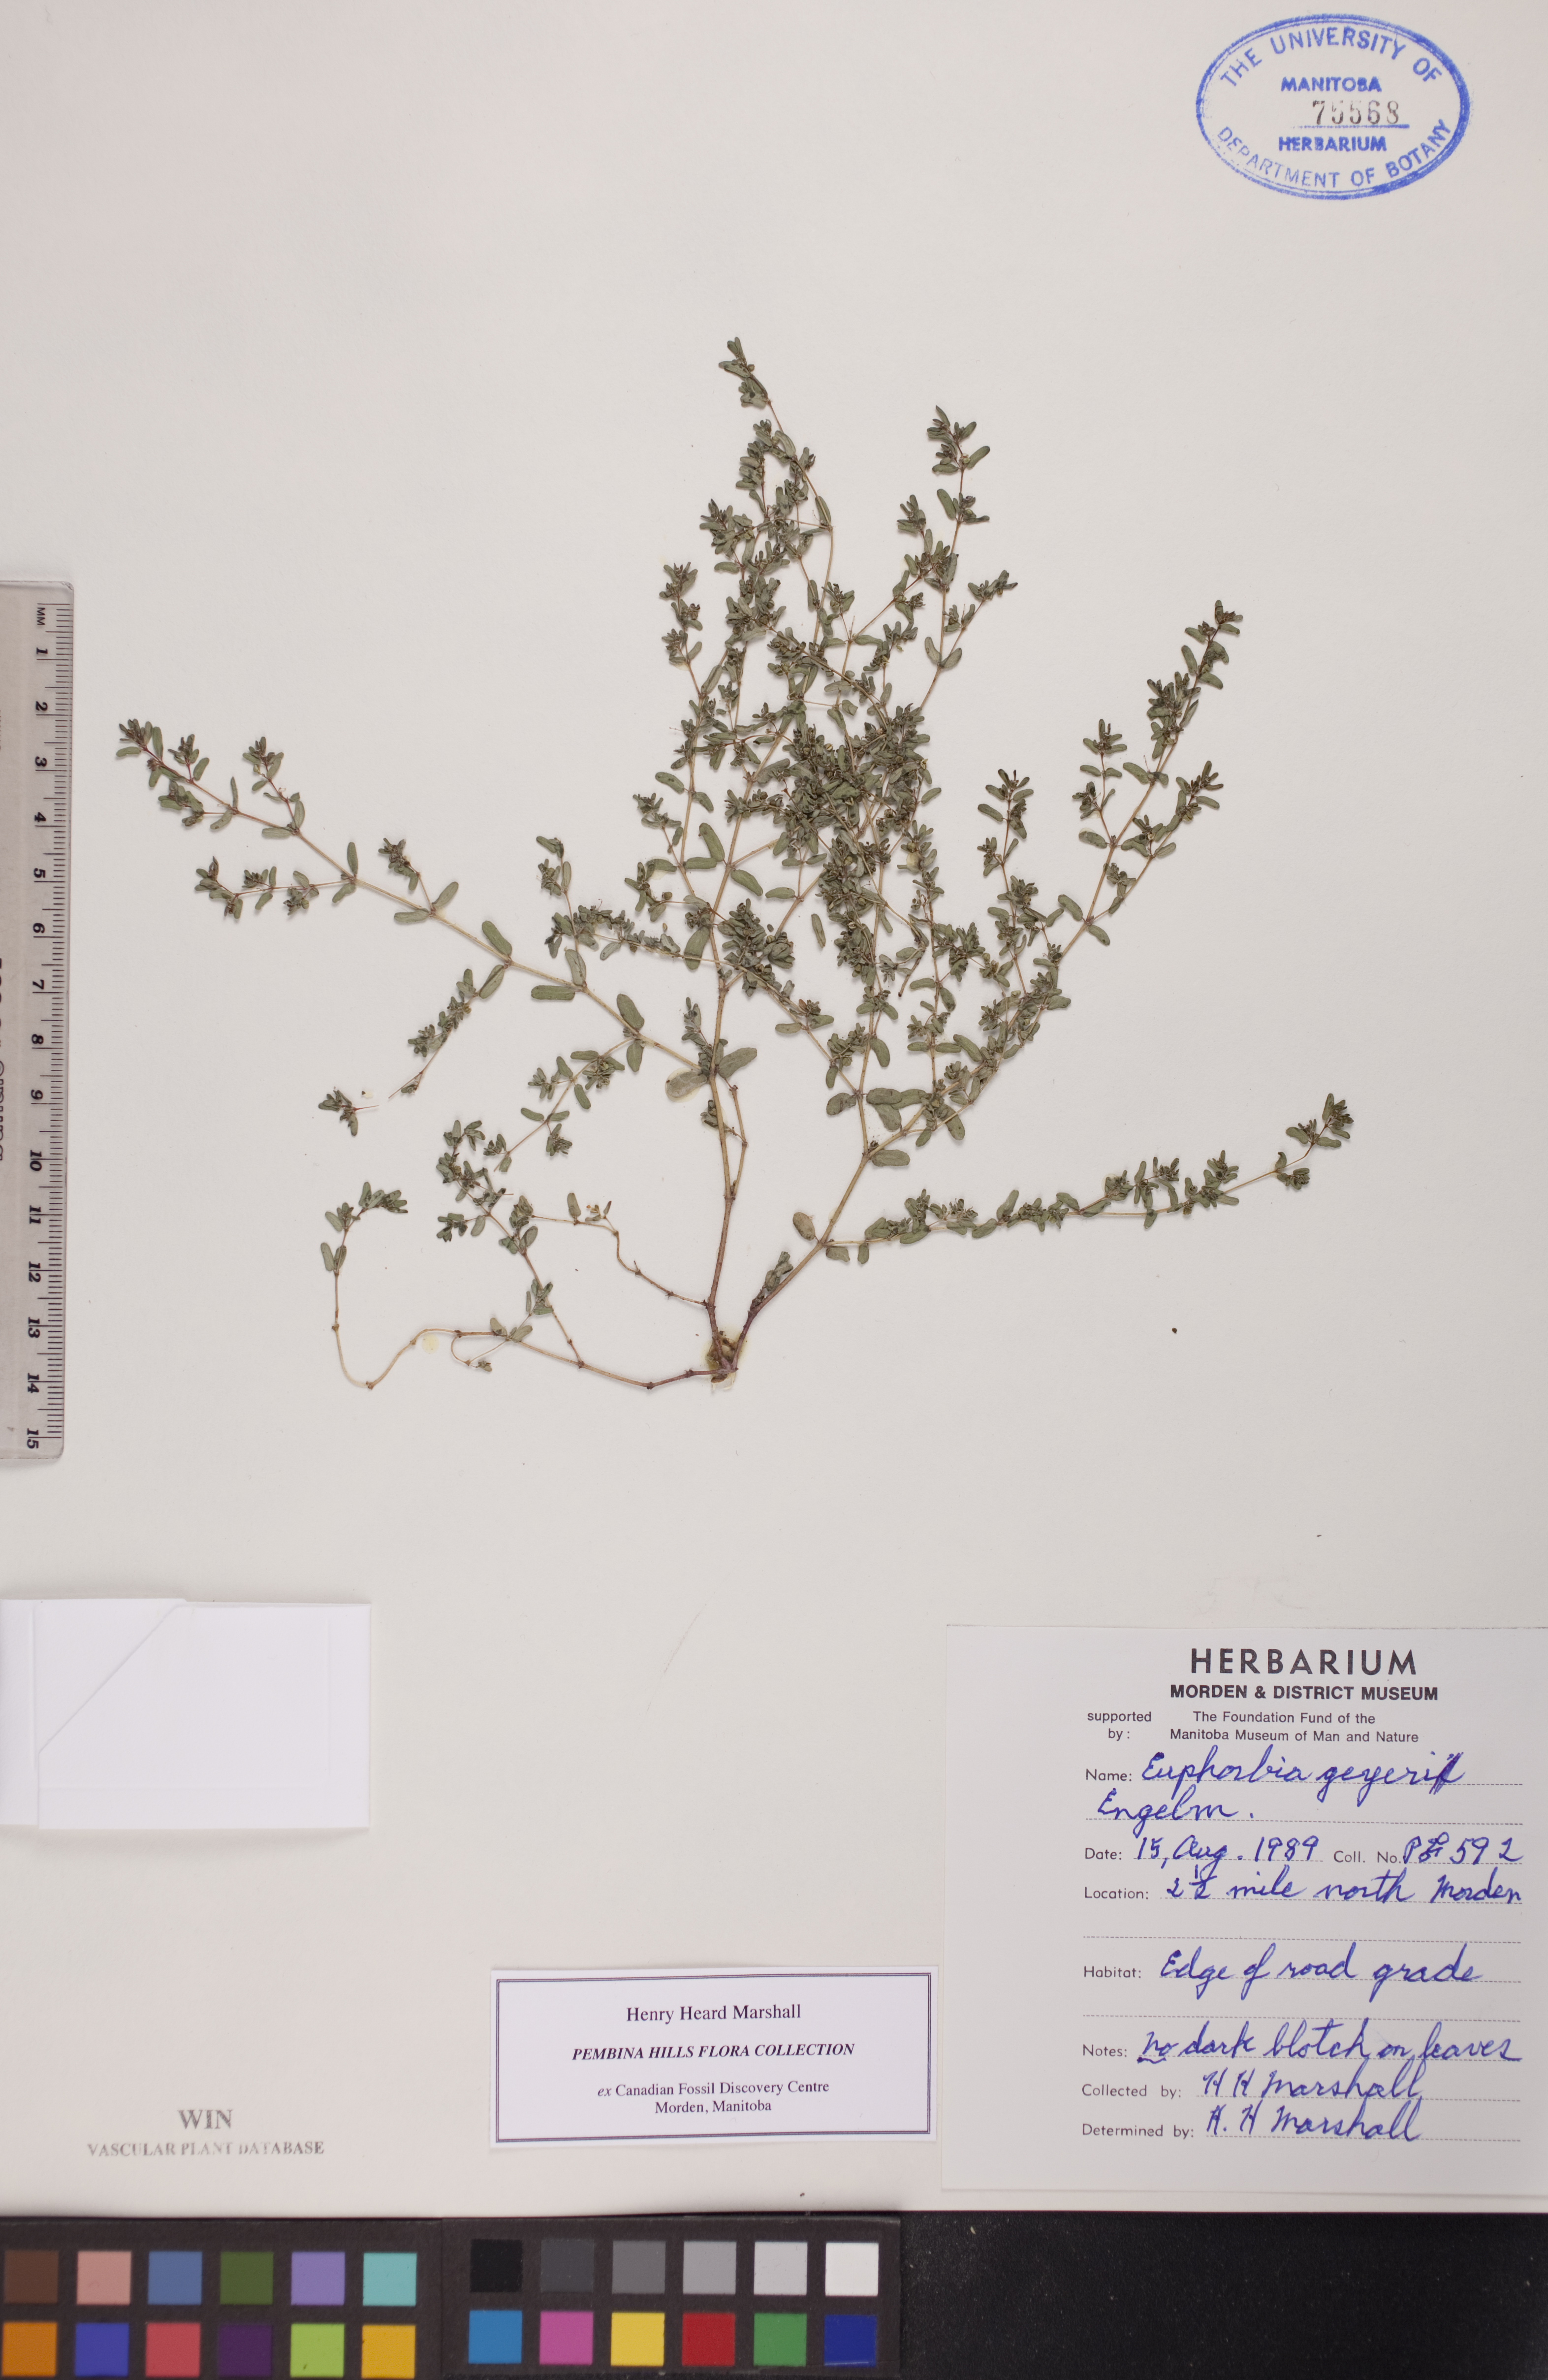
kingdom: Plantae
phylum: Tracheophyta
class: Magnoliopsida
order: Malpighiales
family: Euphorbiaceae
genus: Euphorbia
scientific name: Euphorbia geyeri
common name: Geyer's spurge
